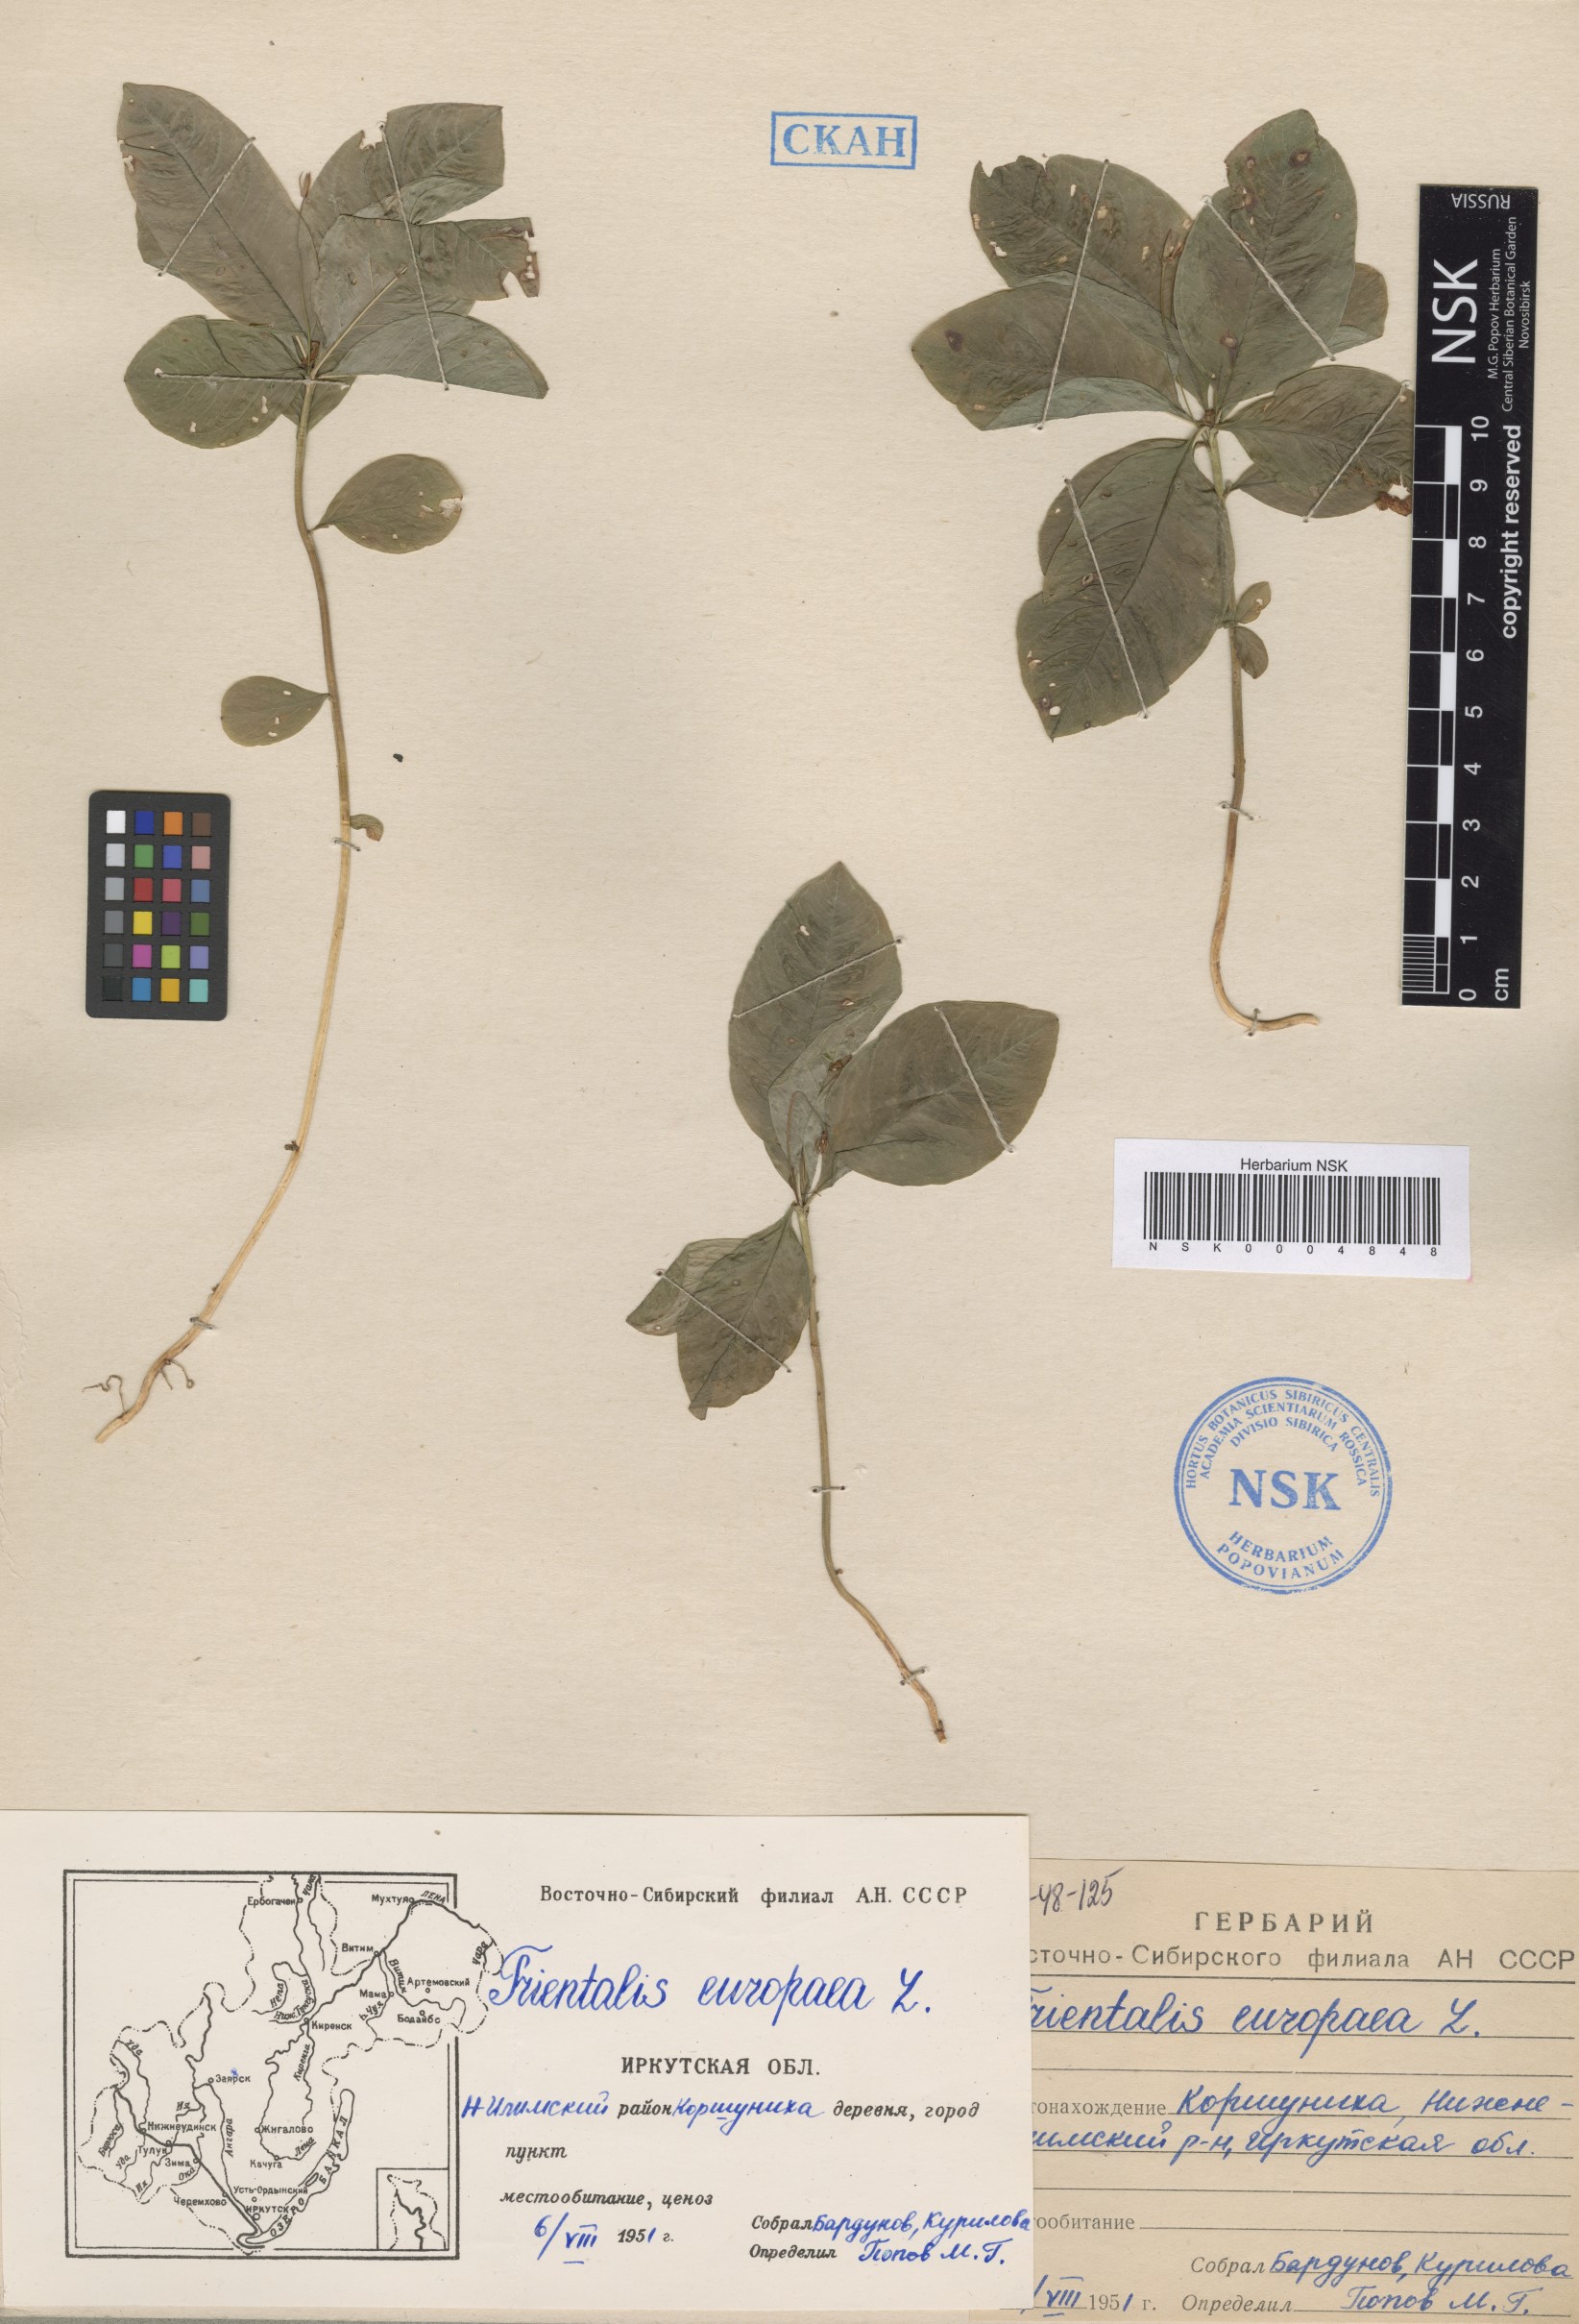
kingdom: Plantae
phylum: Tracheophyta
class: Magnoliopsida
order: Ericales
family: Primulaceae
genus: Lysimachia
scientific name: Lysimachia europaea
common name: Arctic starflower
